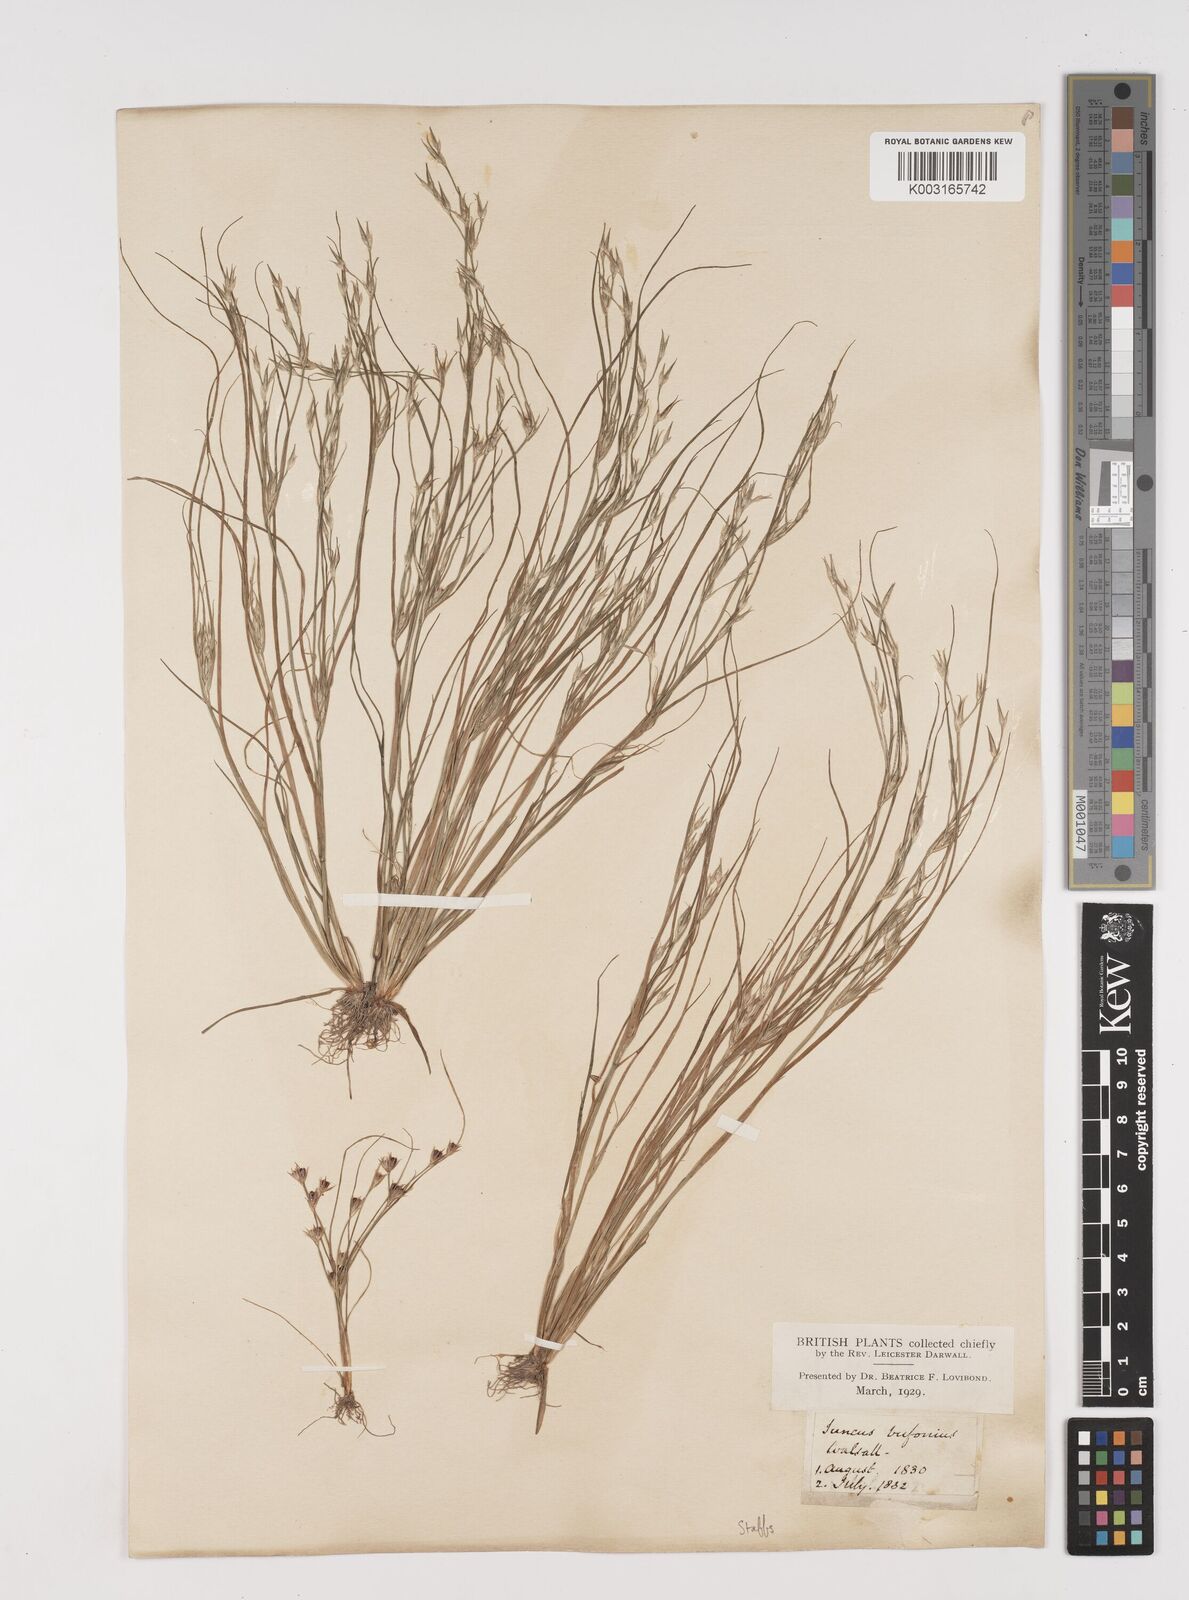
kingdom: Plantae
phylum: Tracheophyta
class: Liliopsida
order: Poales
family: Juncaceae
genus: Juncus
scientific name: Juncus bufonius
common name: Toad rush
